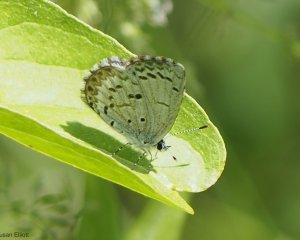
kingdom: Animalia
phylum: Arthropoda
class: Insecta
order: Lepidoptera
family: Lycaenidae
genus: Celastrina
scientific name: Celastrina
